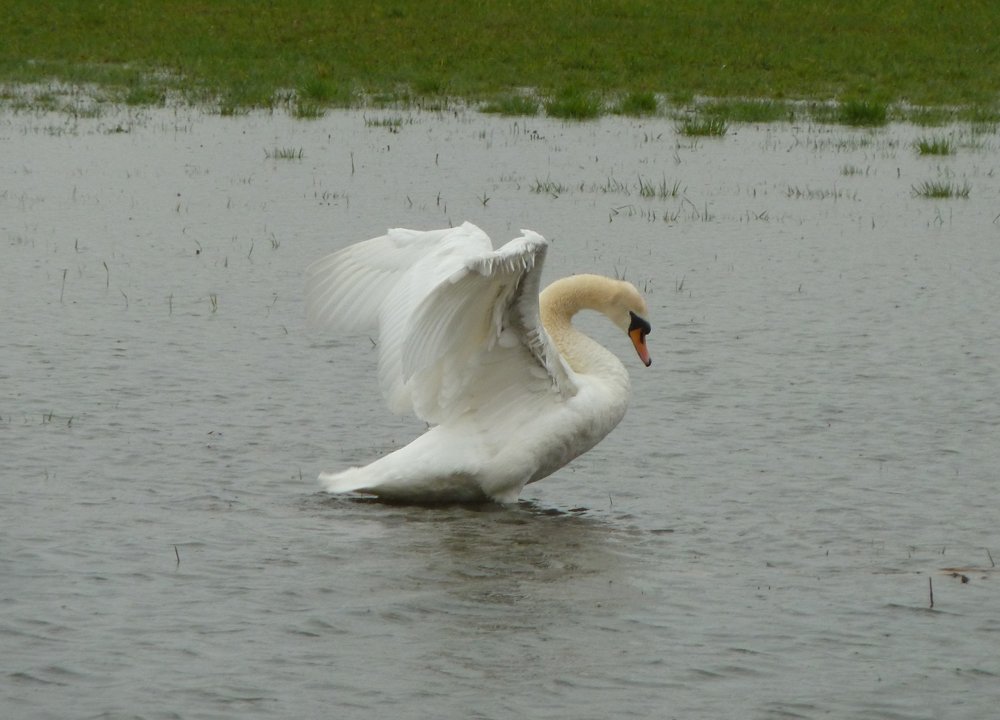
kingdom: Animalia
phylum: Chordata
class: Aves
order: Anseriformes
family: Anatidae
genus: Cygnus
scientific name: Cygnus olor
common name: Mute swan
